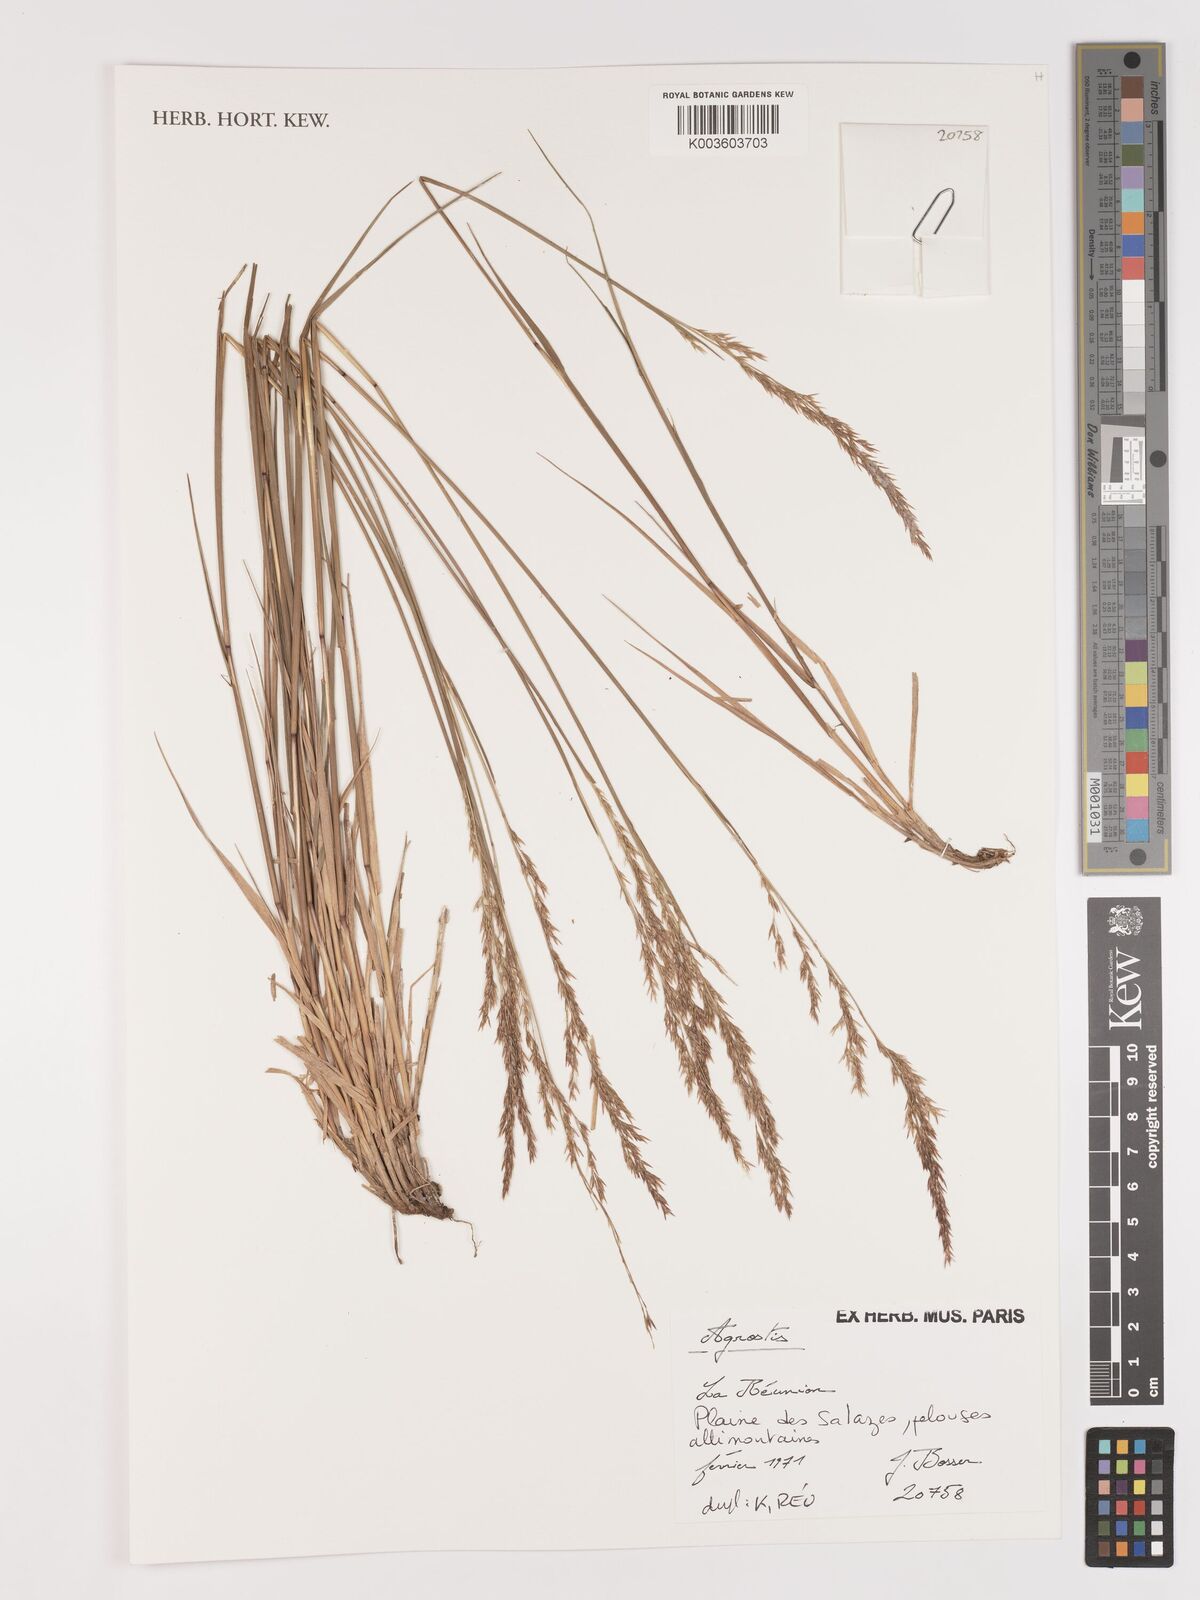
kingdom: Plantae
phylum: Tracheophyta
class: Liliopsida
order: Poales
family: Poaceae
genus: Agrostis
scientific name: Agrostis
